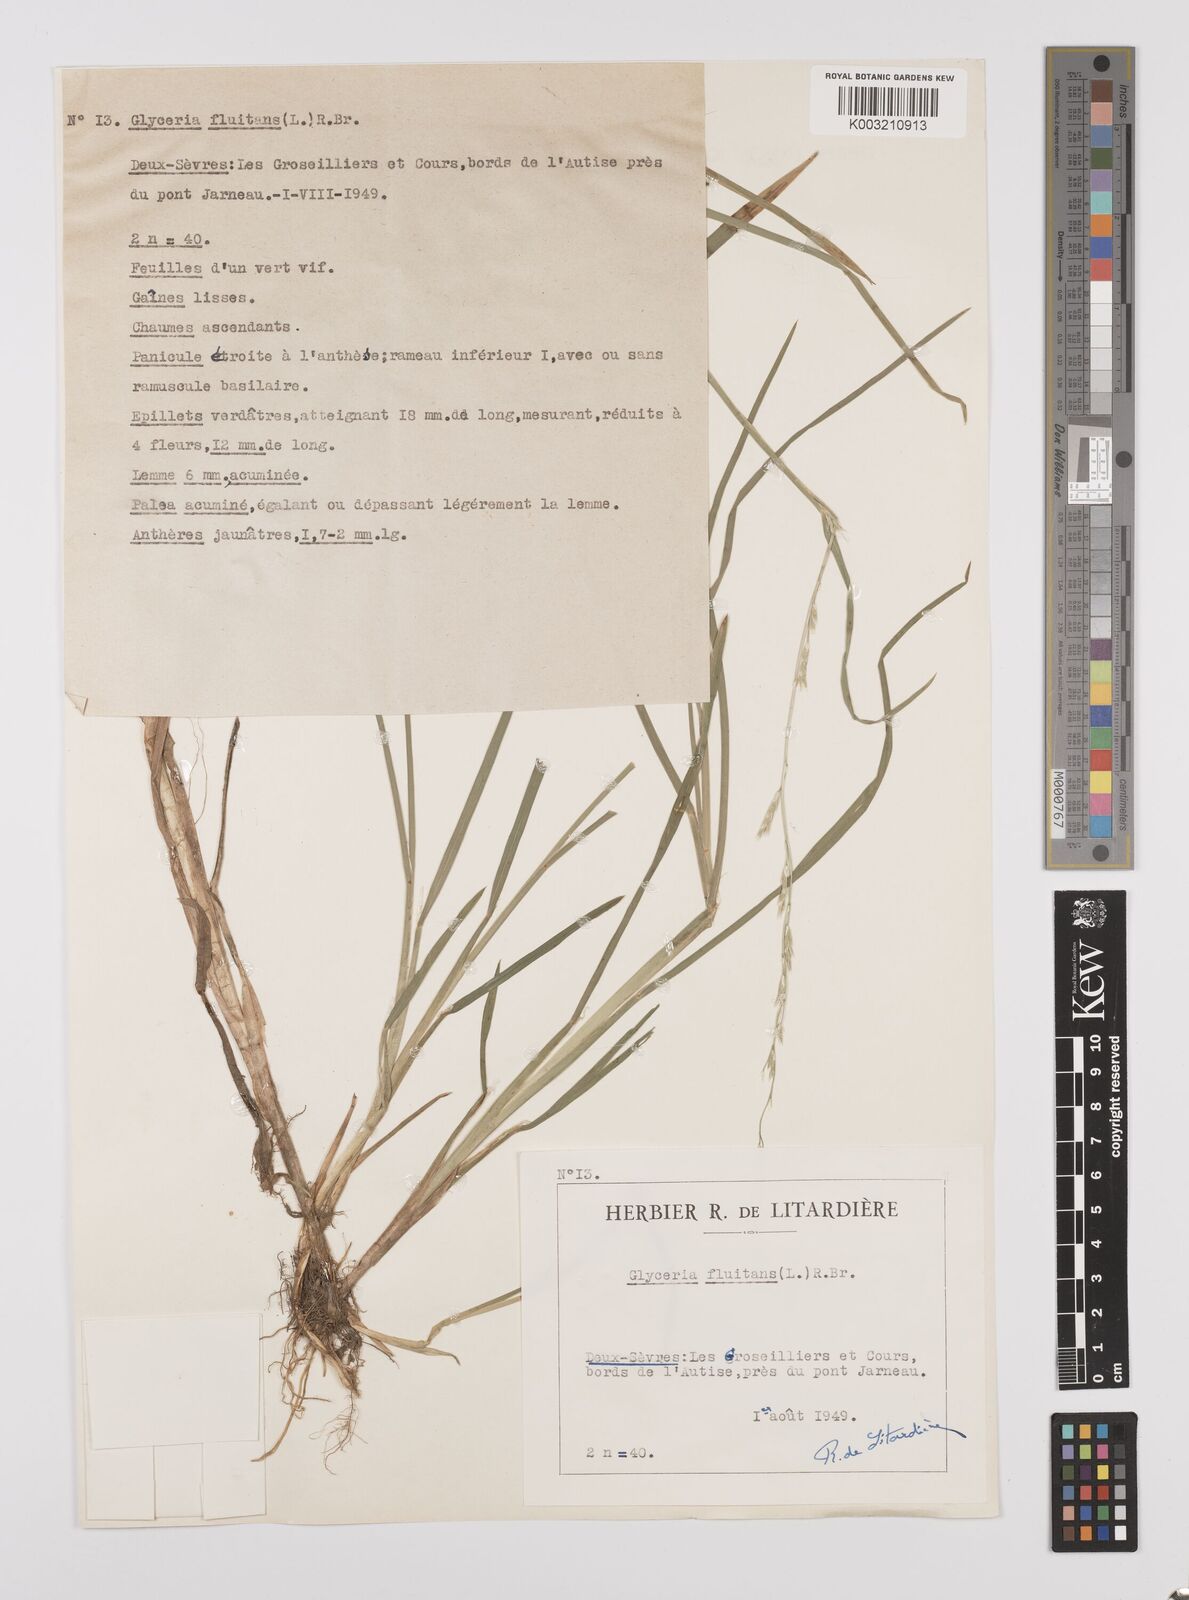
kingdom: Plantae
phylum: Tracheophyta
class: Liliopsida
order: Poales
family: Poaceae
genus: Glyceria
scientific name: Glyceria fluitans
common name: Floating sweet-grass
